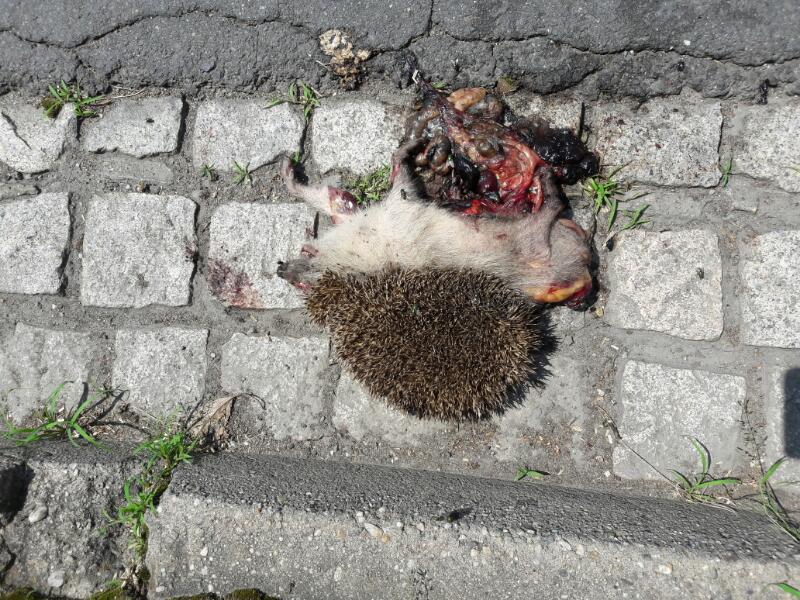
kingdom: Animalia
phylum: Chordata
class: Mammalia
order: Erinaceomorpha
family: Erinaceidae
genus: Erinaceus
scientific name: Erinaceus
